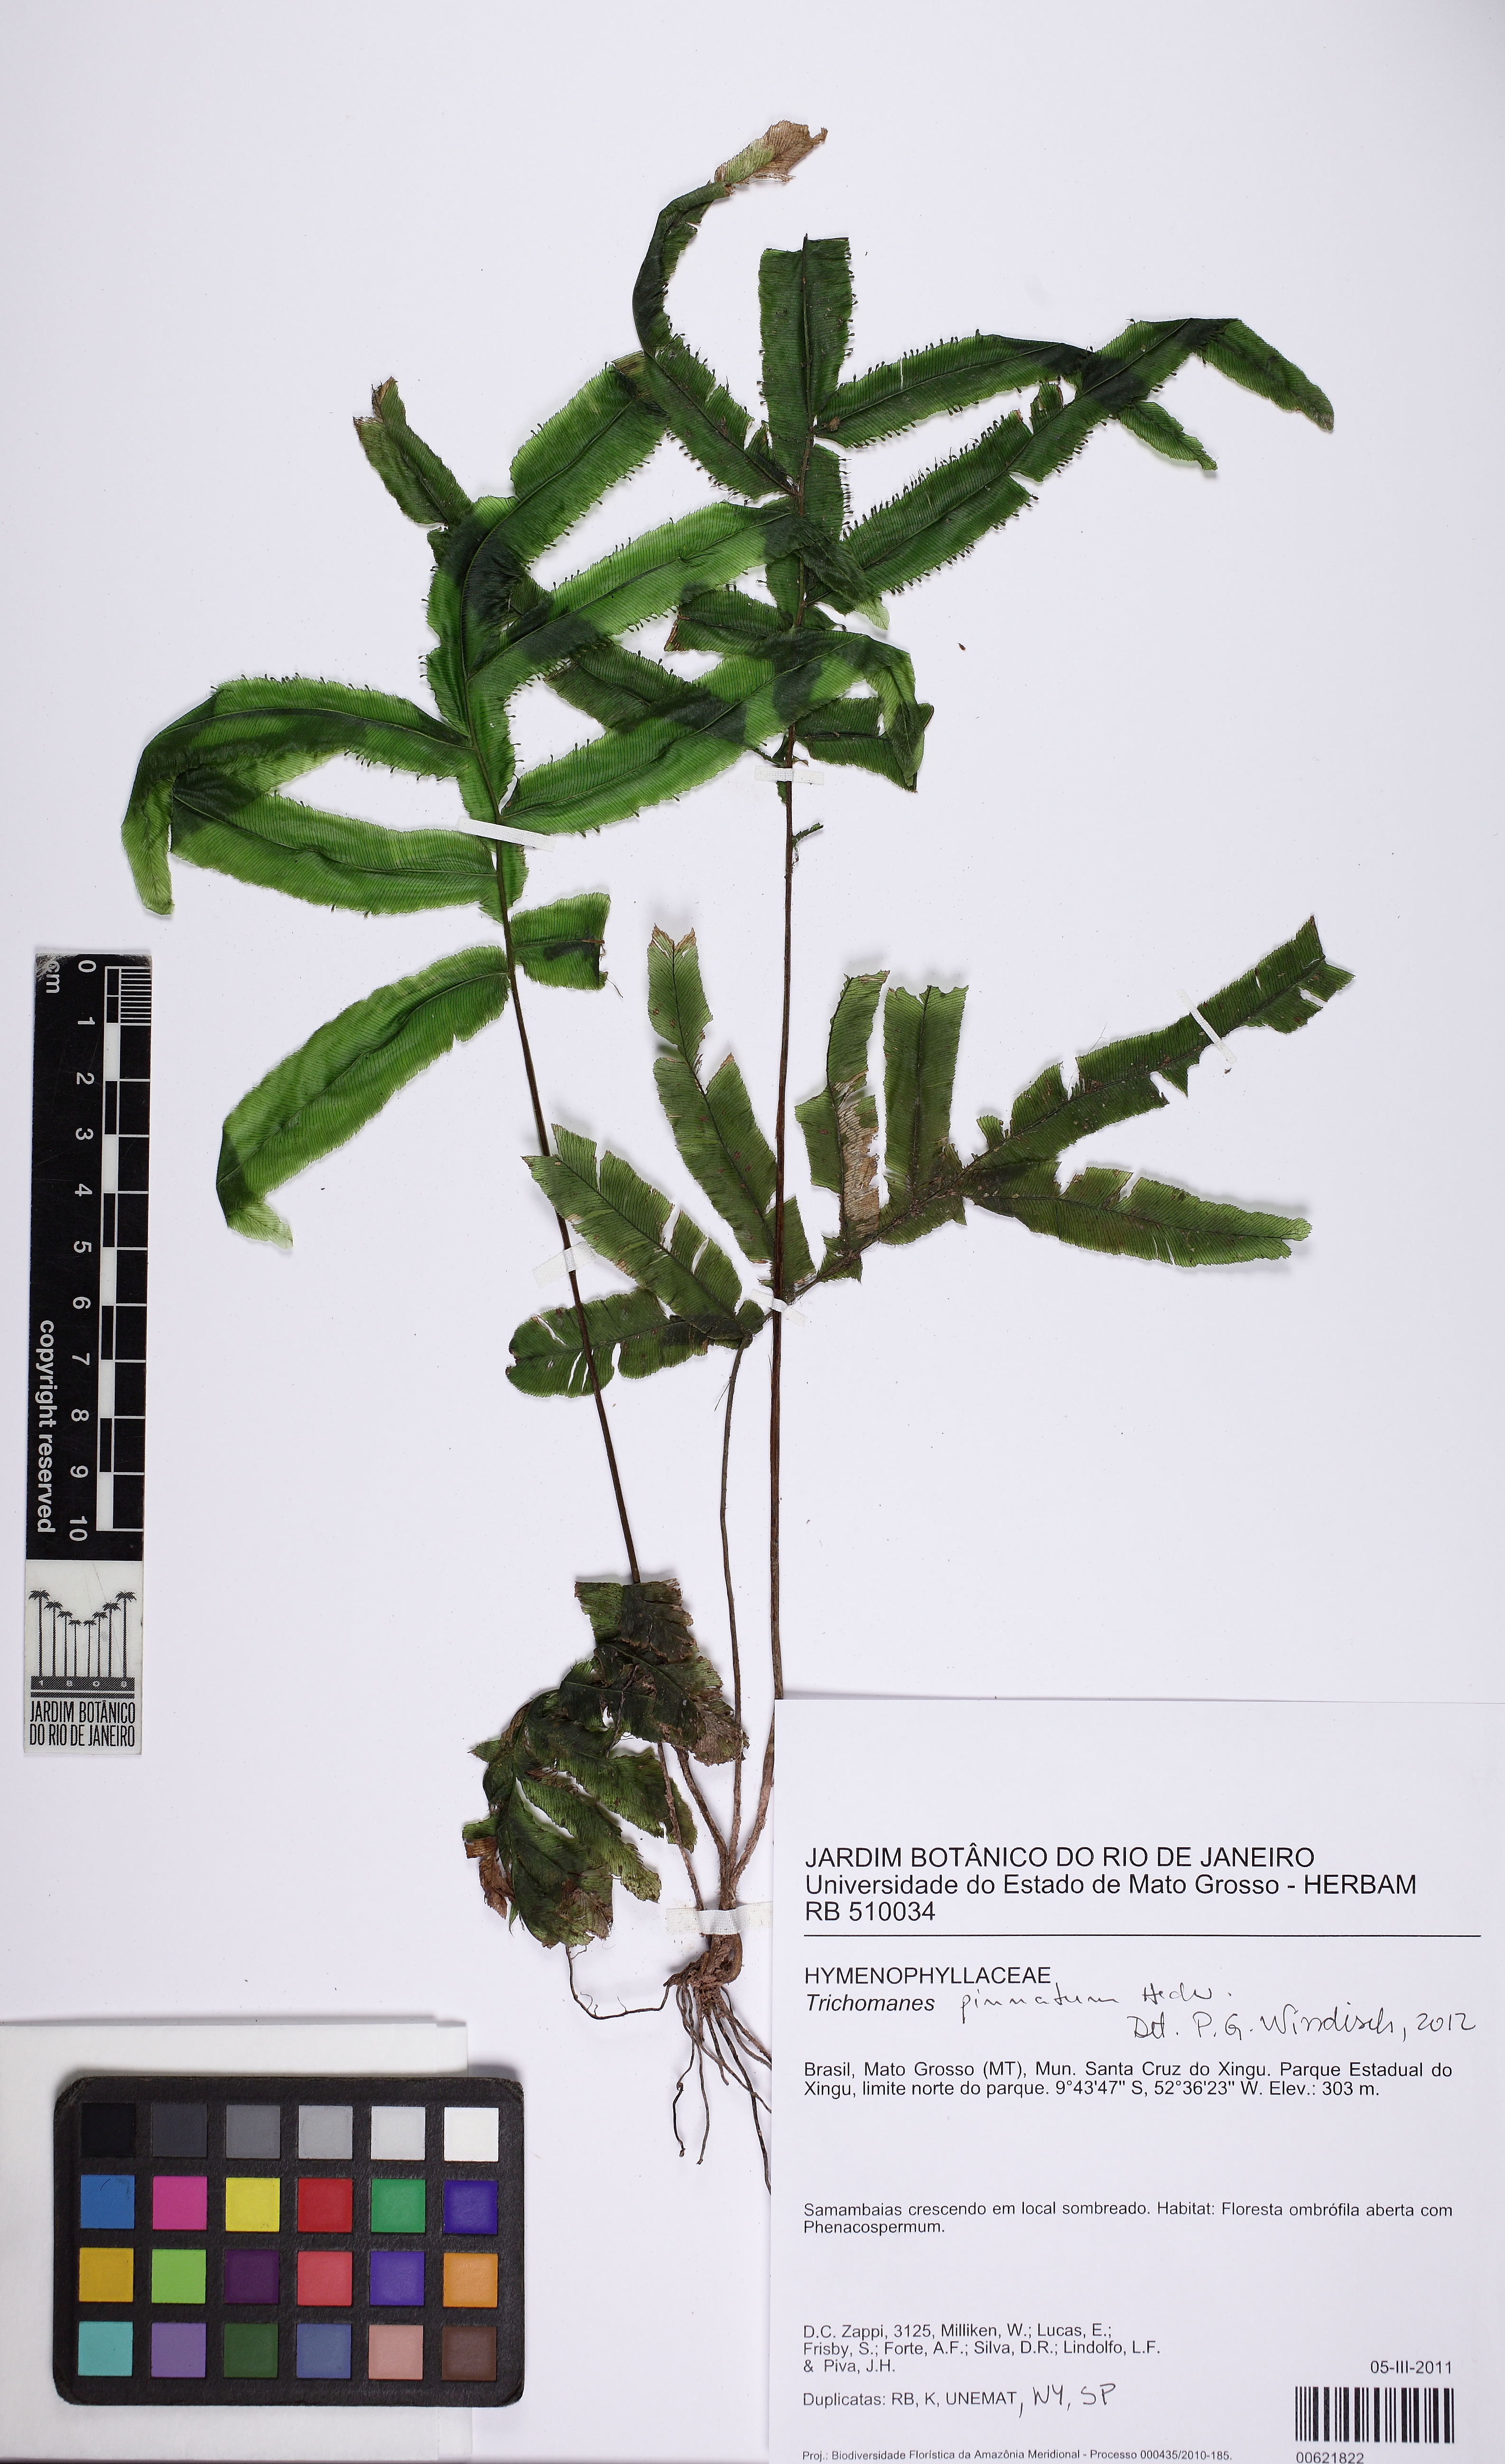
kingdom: Plantae
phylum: Tracheophyta
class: Polypodiopsida
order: Hymenophyllales
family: Hymenophyllaceae
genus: Trichomanes
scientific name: Trichomanes pinnatum
